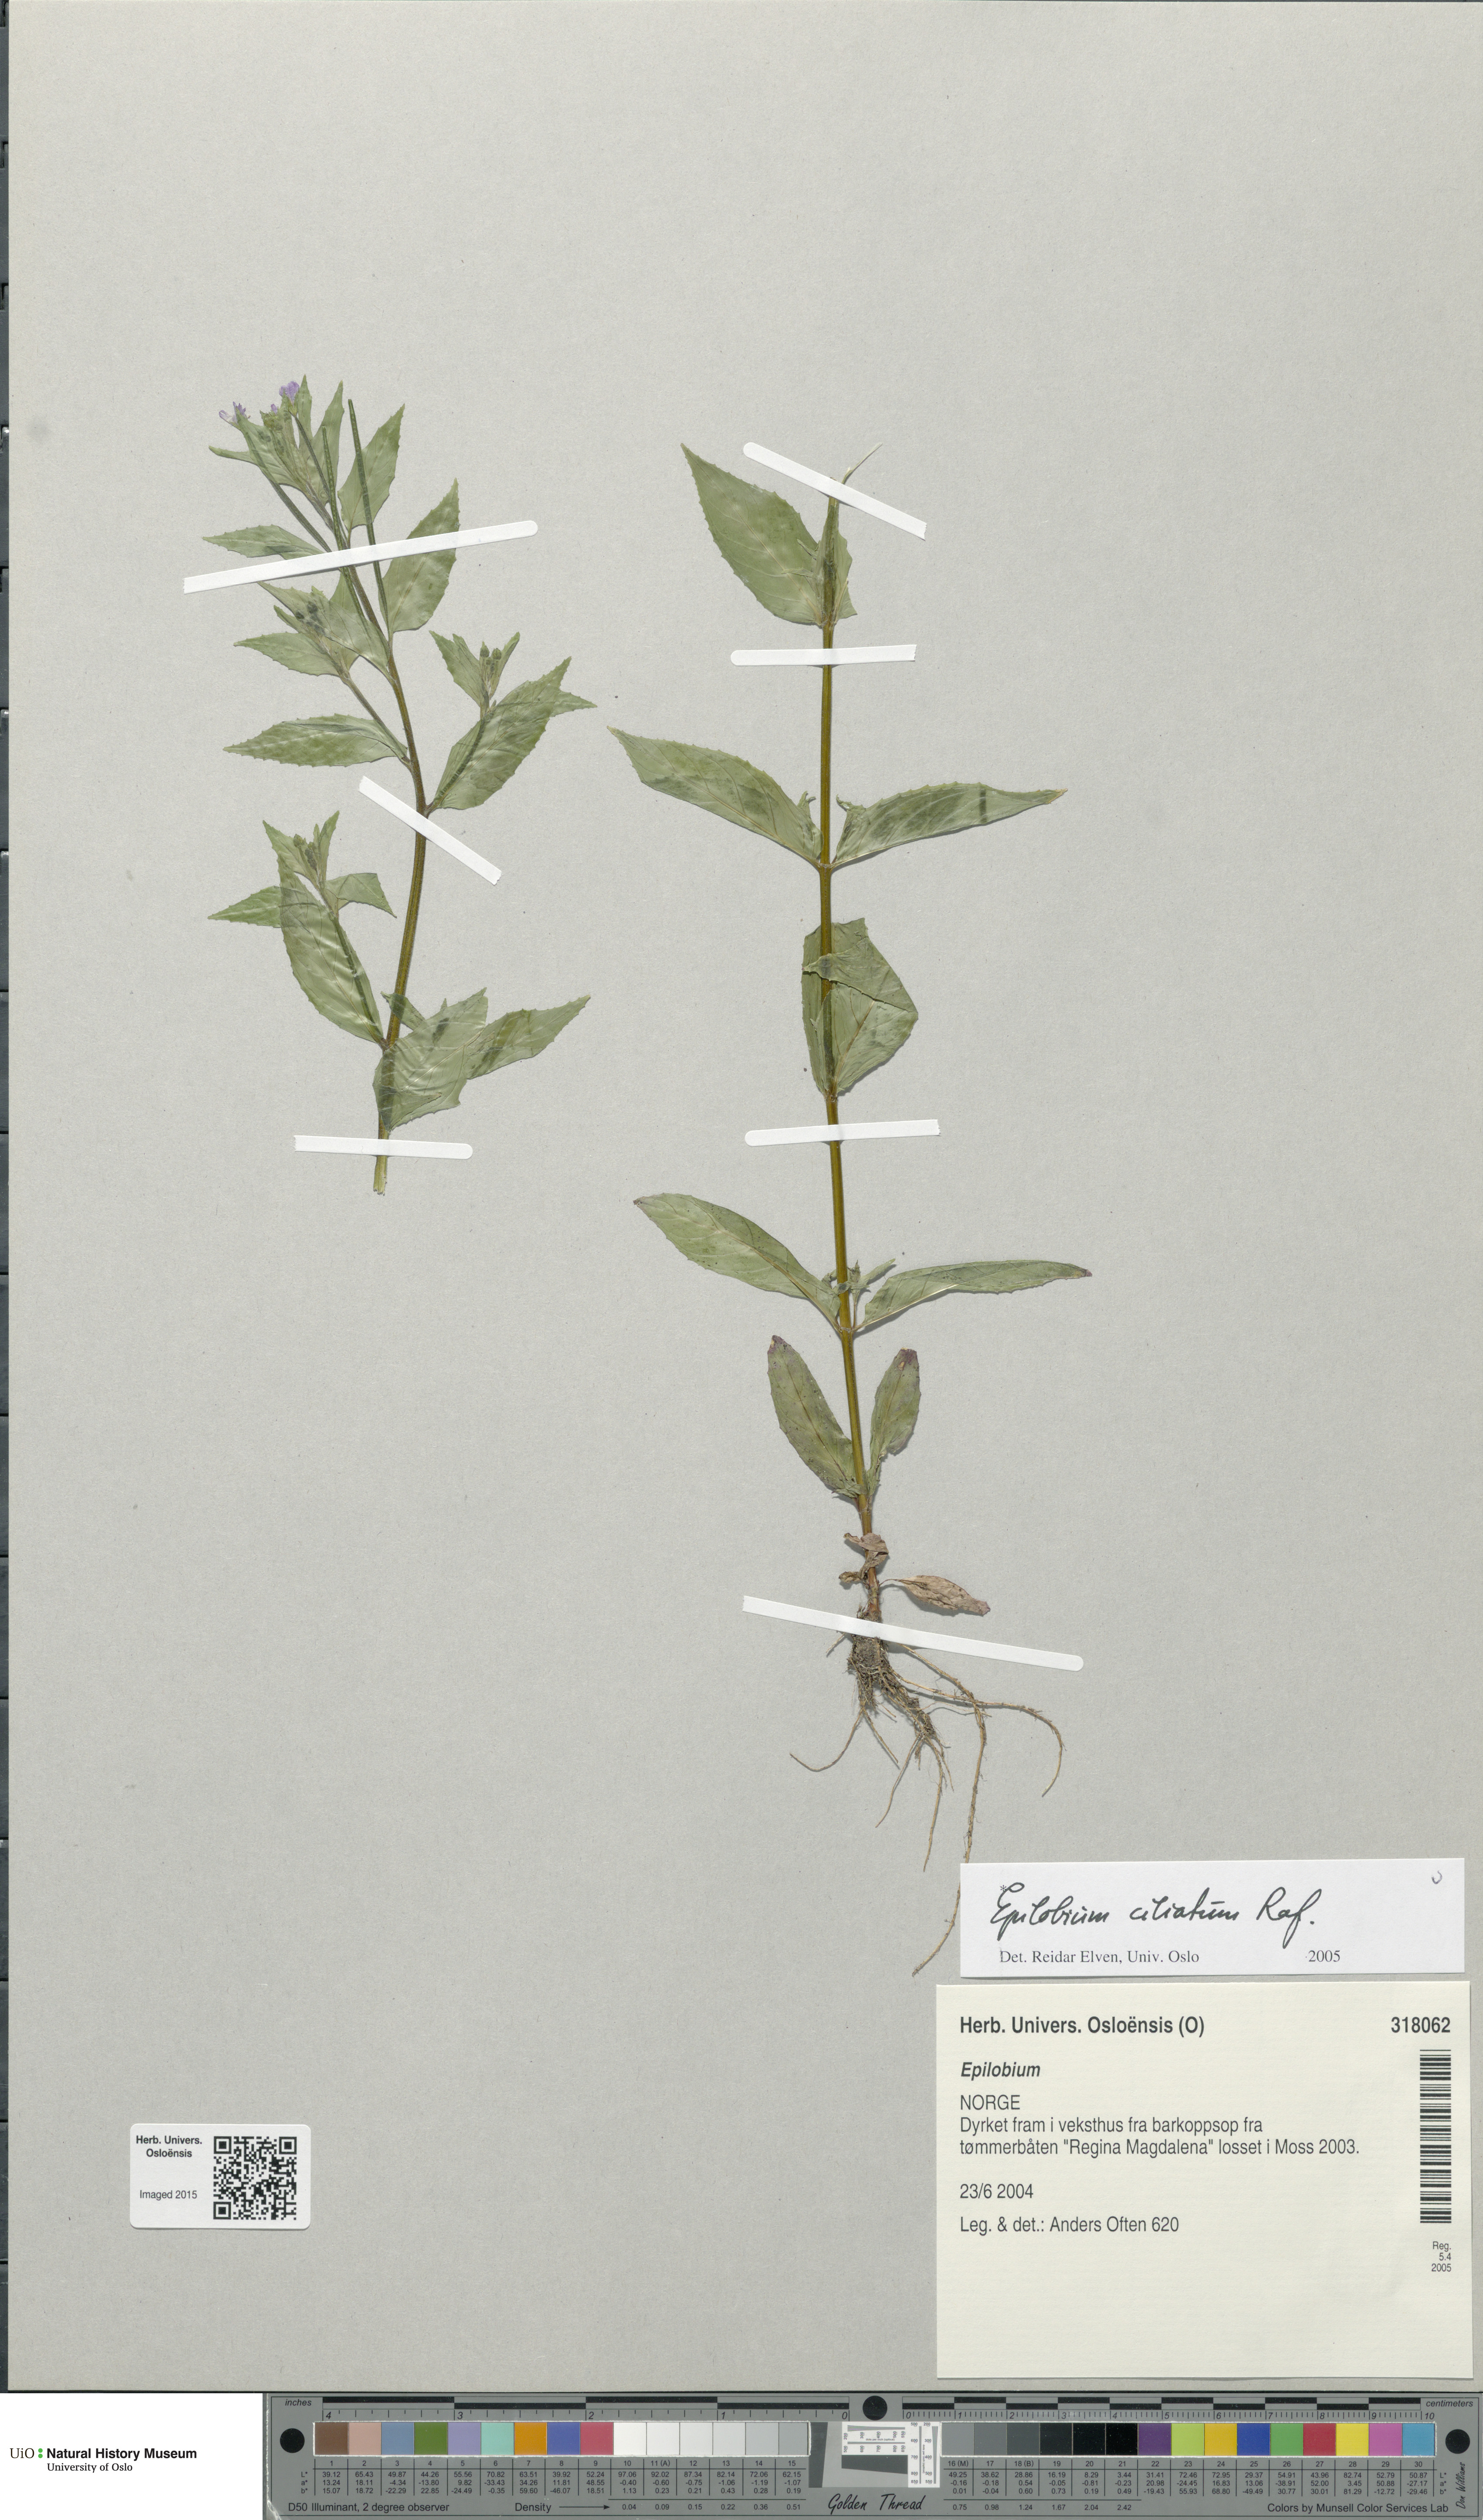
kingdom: Plantae
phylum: Tracheophyta
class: Magnoliopsida
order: Myrtales
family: Onagraceae
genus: Epilobium
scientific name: Epilobium ciliatum
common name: American willowherb
